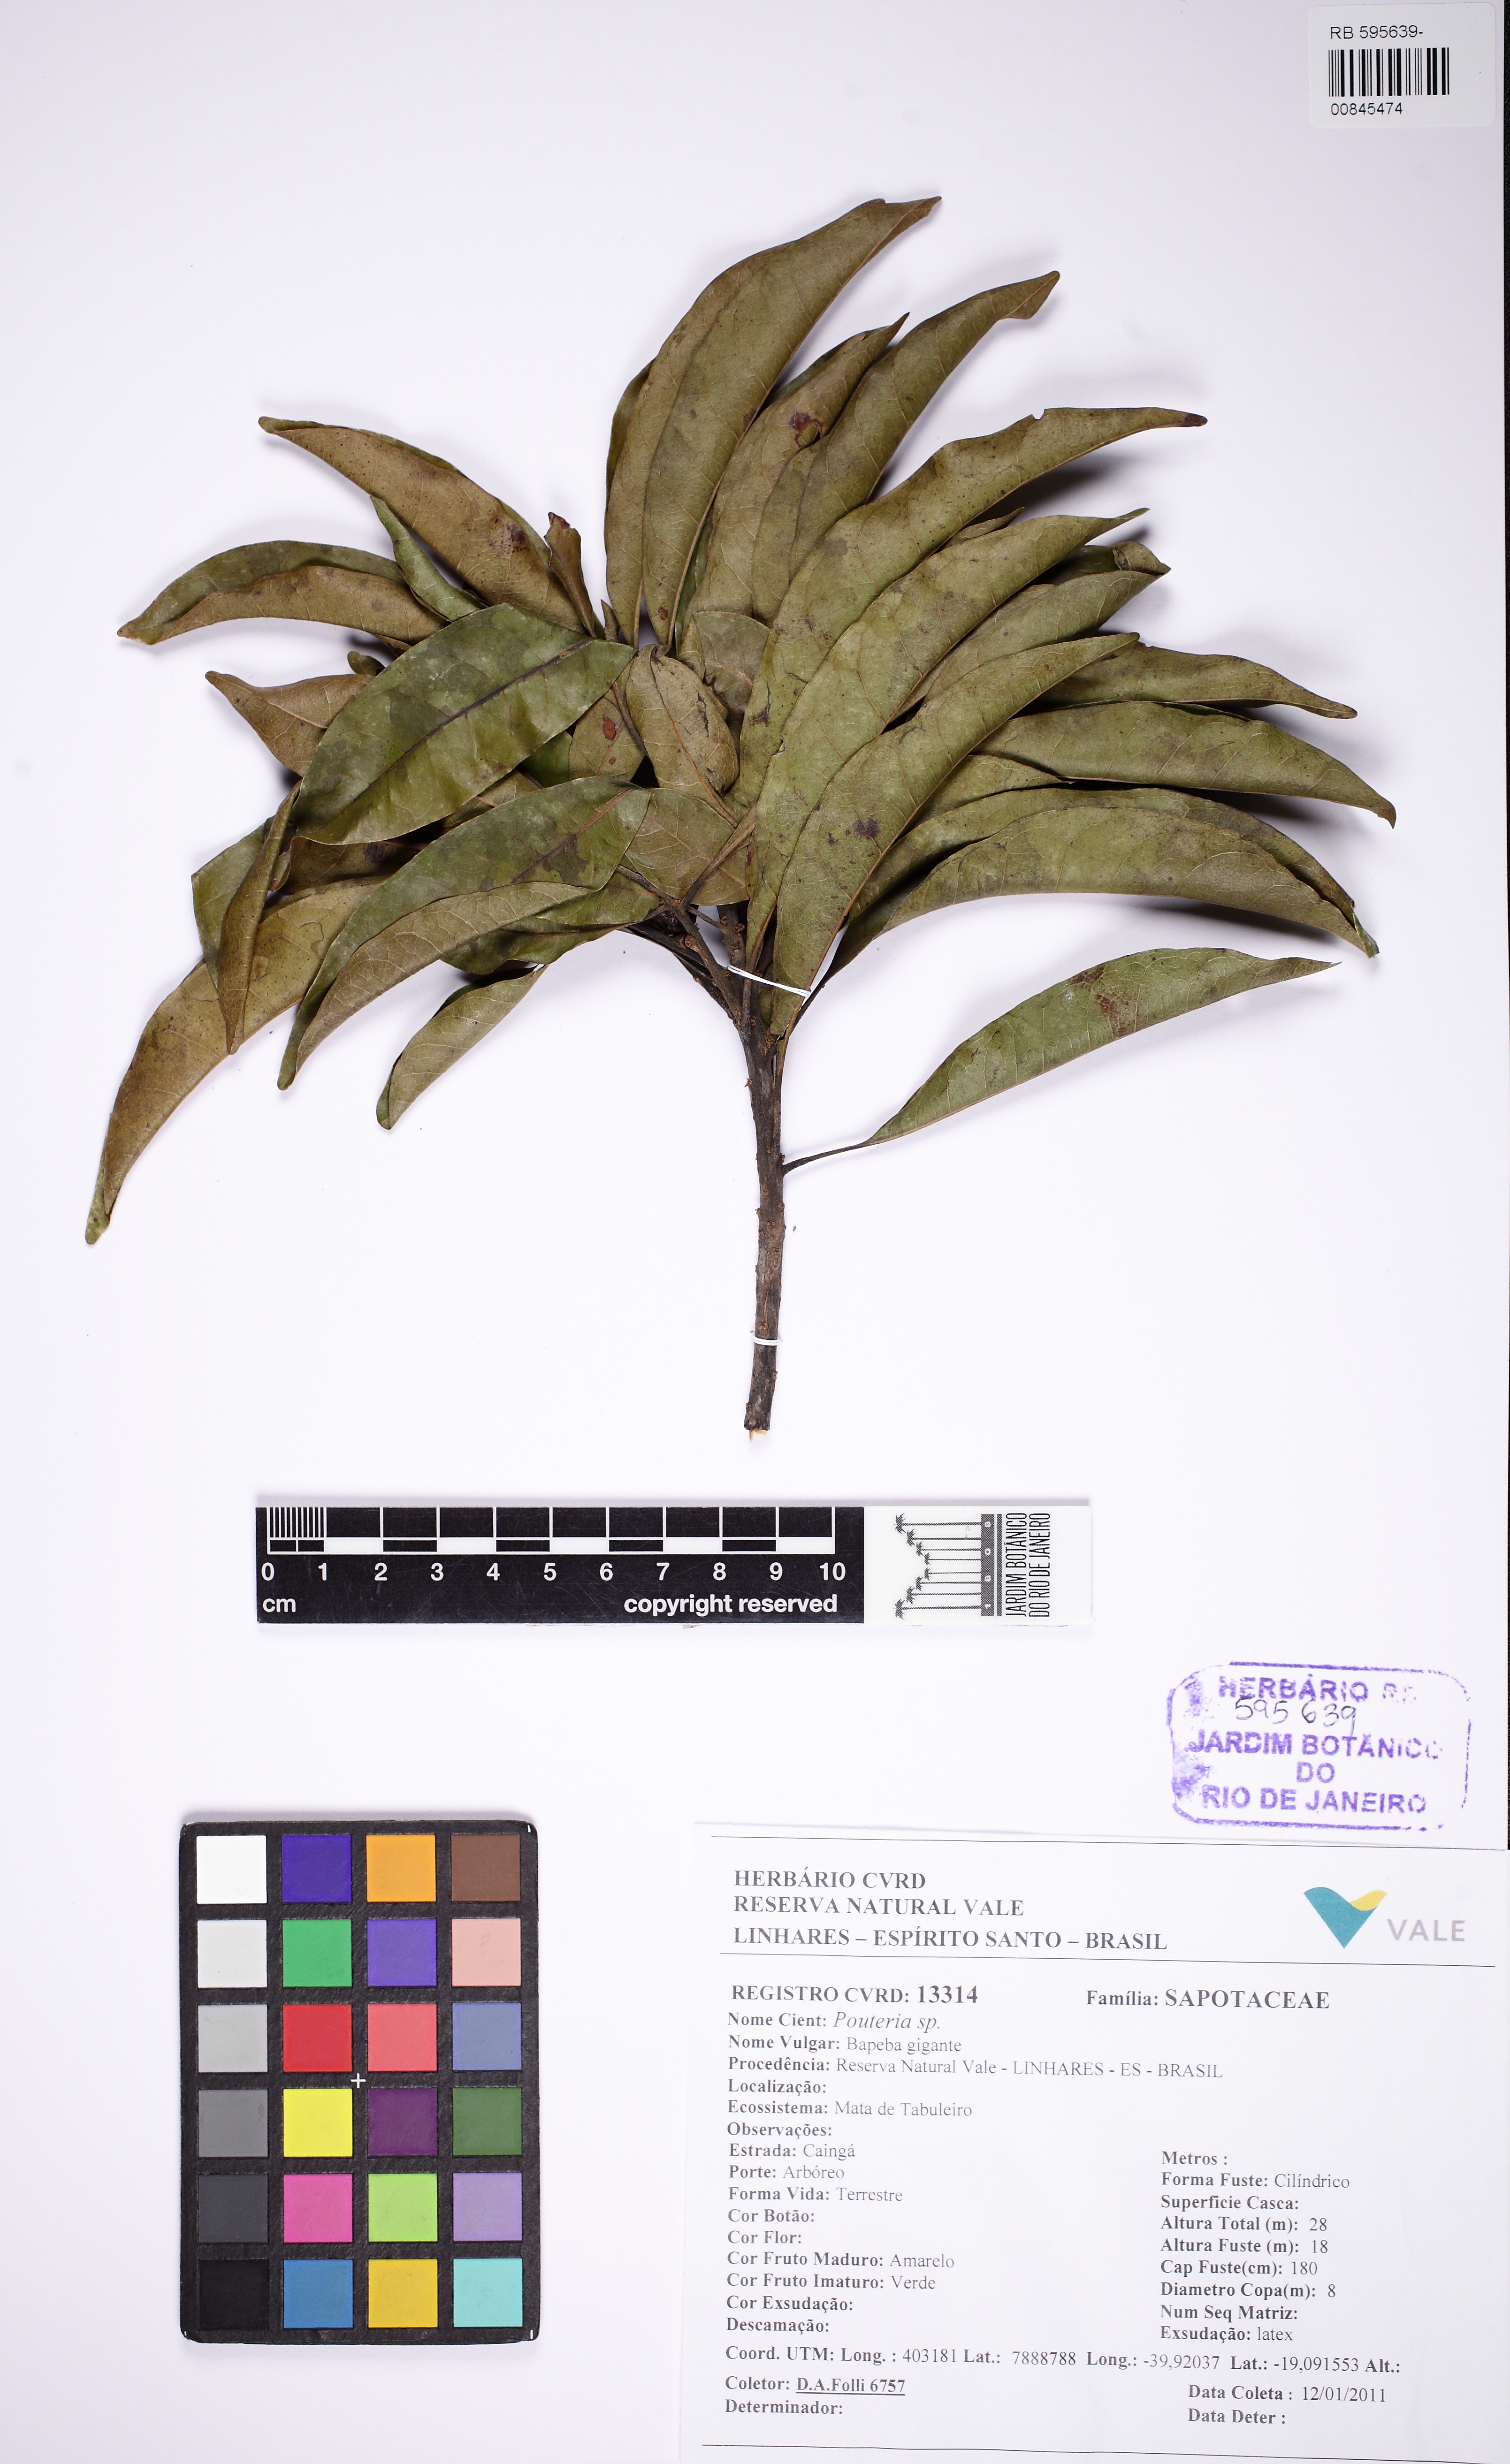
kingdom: Plantae
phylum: Tracheophyta
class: Magnoliopsida
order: Ericales
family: Sapotaceae
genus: Pouteria
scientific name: Pouteria
